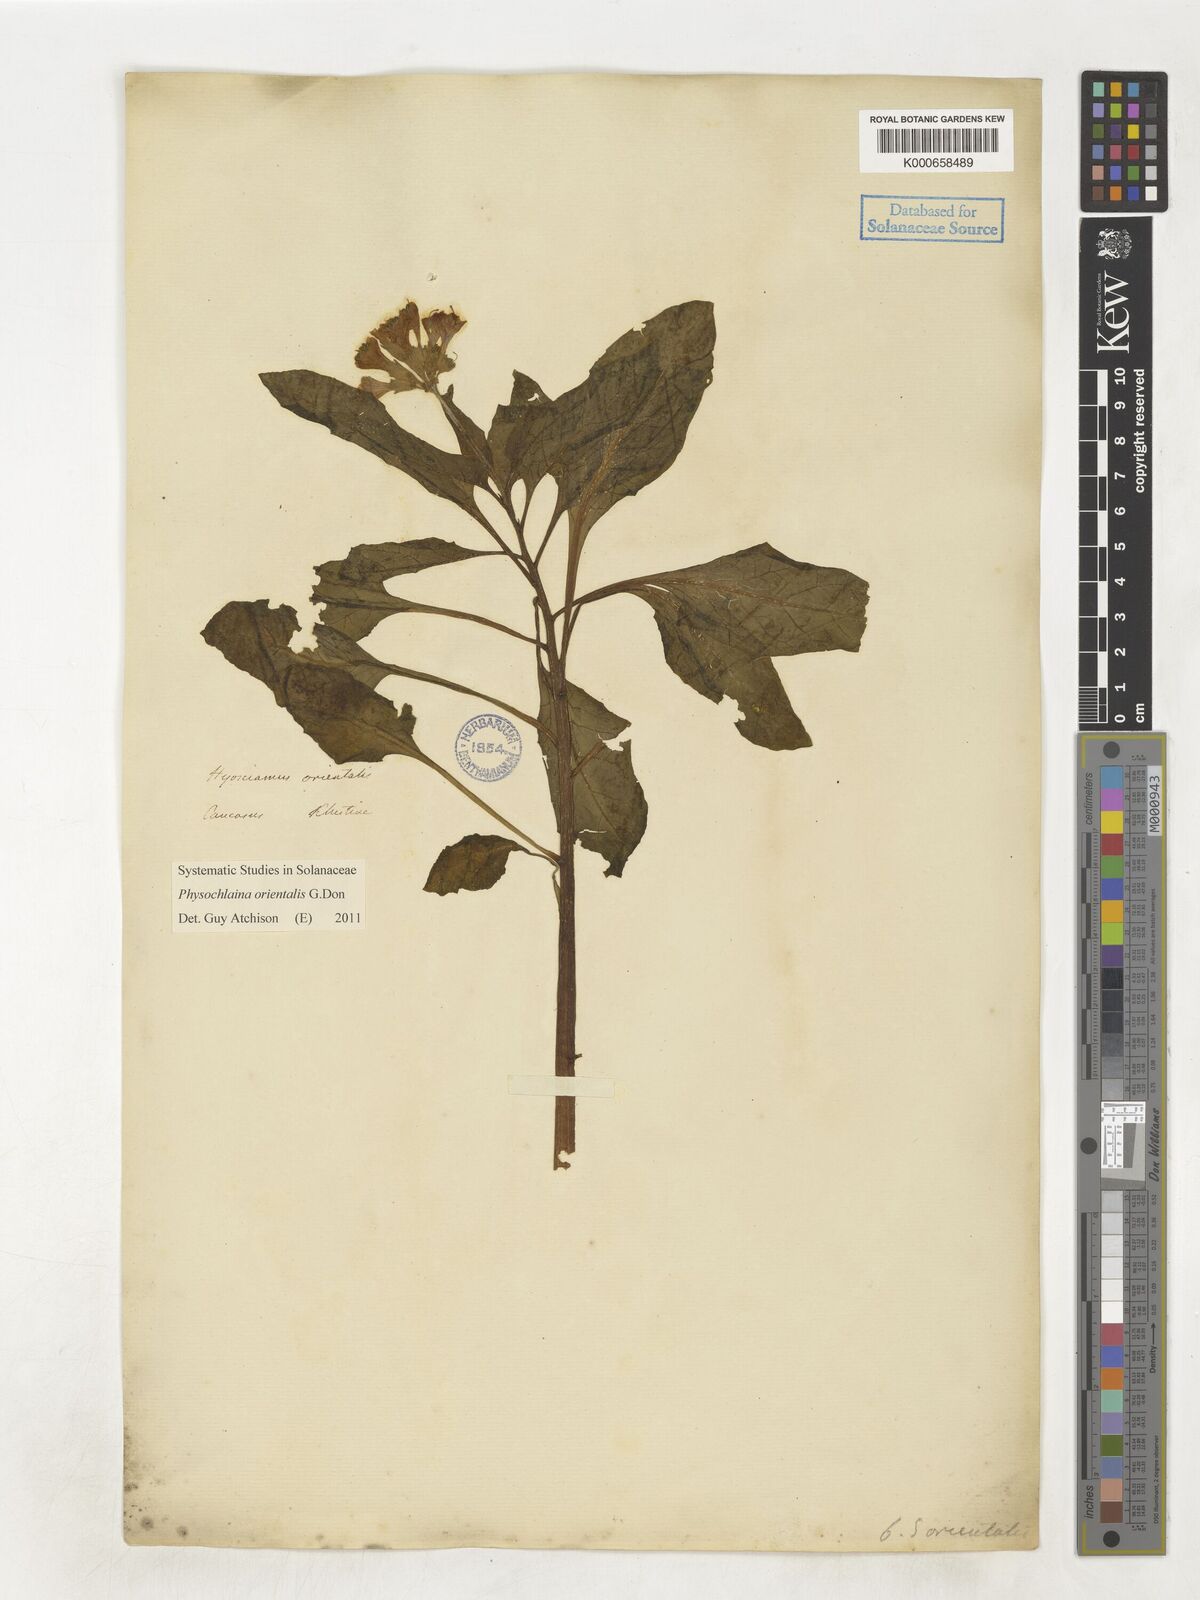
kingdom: Plantae
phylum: Tracheophyta
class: Magnoliopsida
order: Solanales
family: Solanaceae
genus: Physochlaina
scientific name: Physochlaina orientalis
